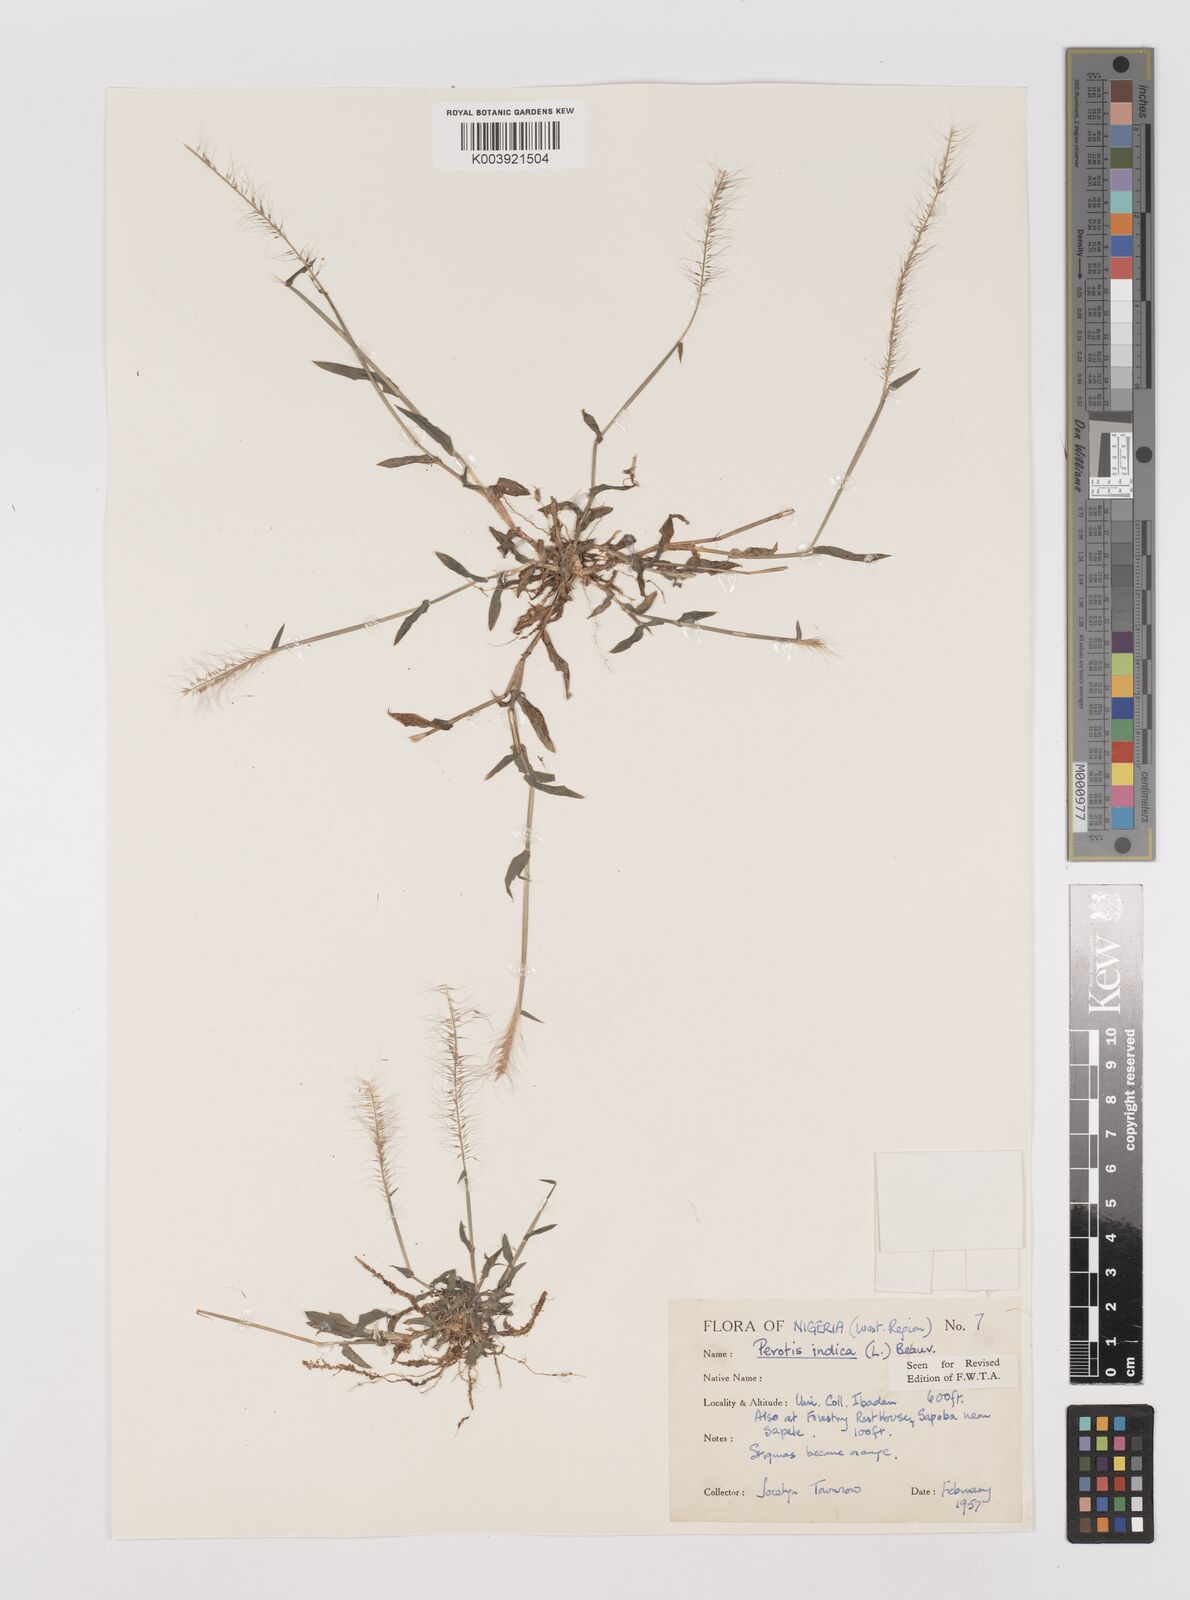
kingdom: Plantae
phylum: Tracheophyta
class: Liliopsida
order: Poales
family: Poaceae
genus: Perotis
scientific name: Perotis indica
